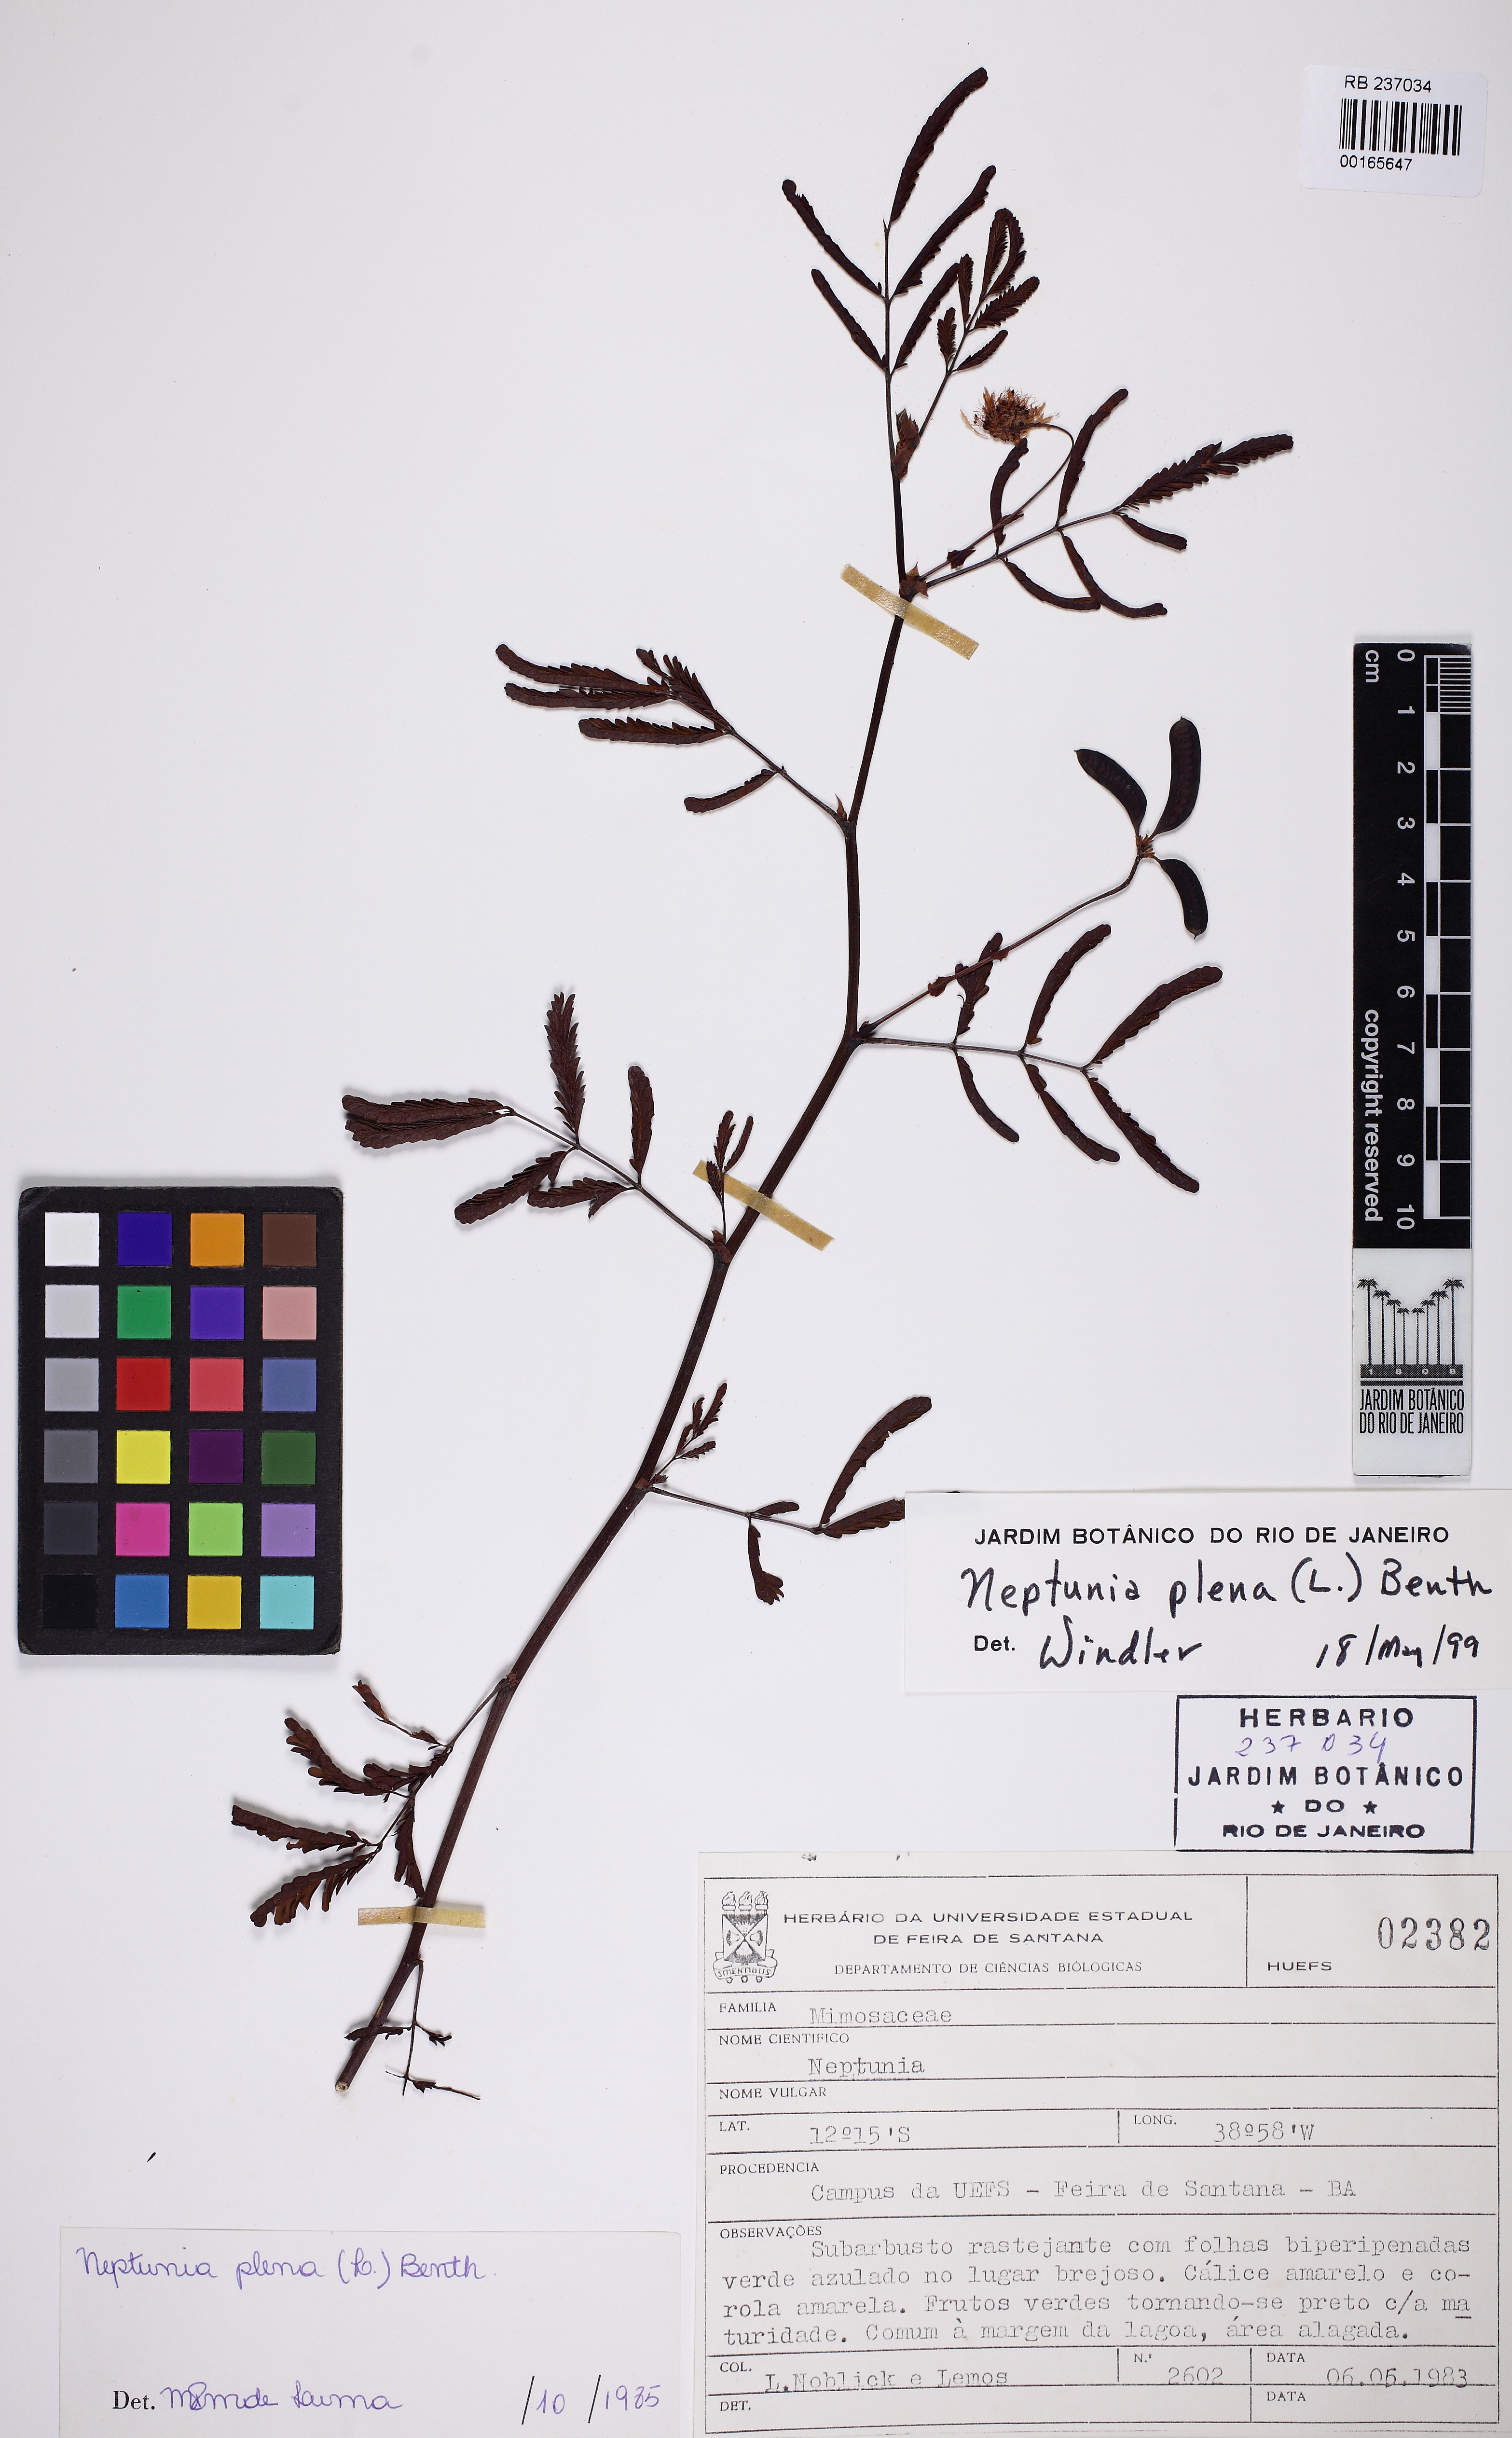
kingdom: Plantae
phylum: Tracheophyta
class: Magnoliopsida
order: Fabales
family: Fabaceae
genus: Neptunia
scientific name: Neptunia plena
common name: Dead and awake
